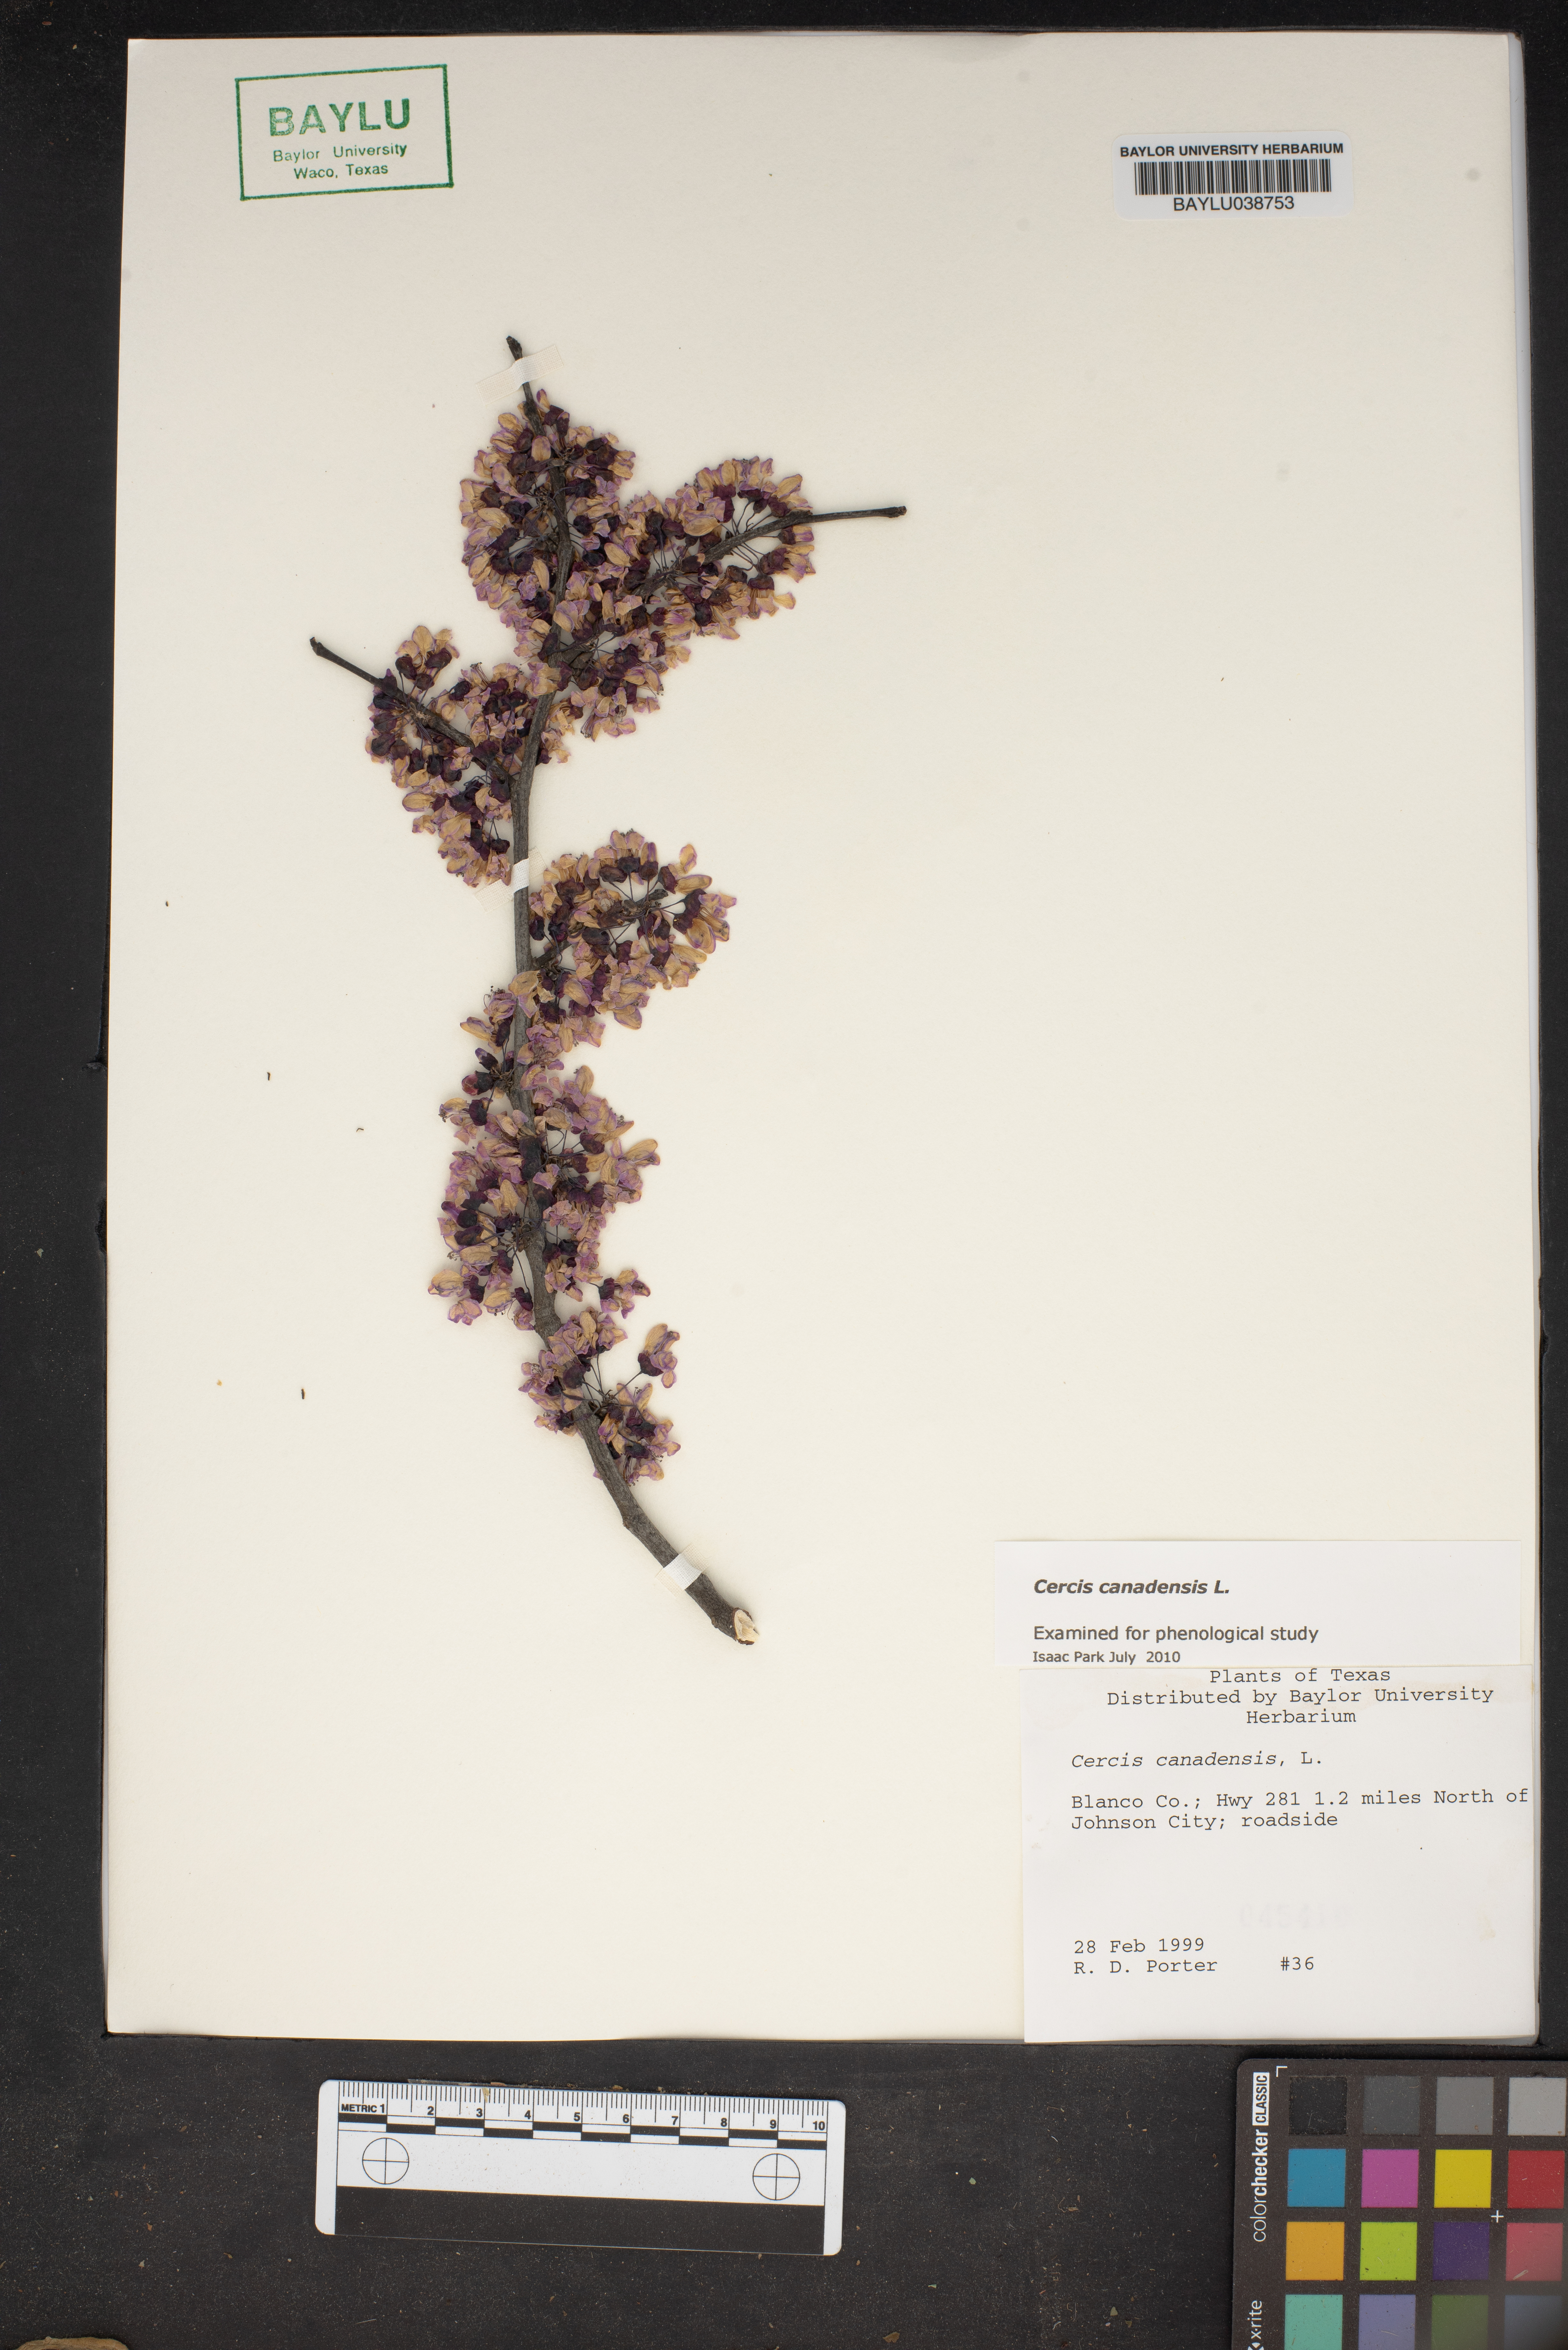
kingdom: Plantae
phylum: Tracheophyta
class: Magnoliopsida
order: Fabales
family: Fabaceae
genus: Cercis
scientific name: Cercis canadensis
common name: Eastern redbud
